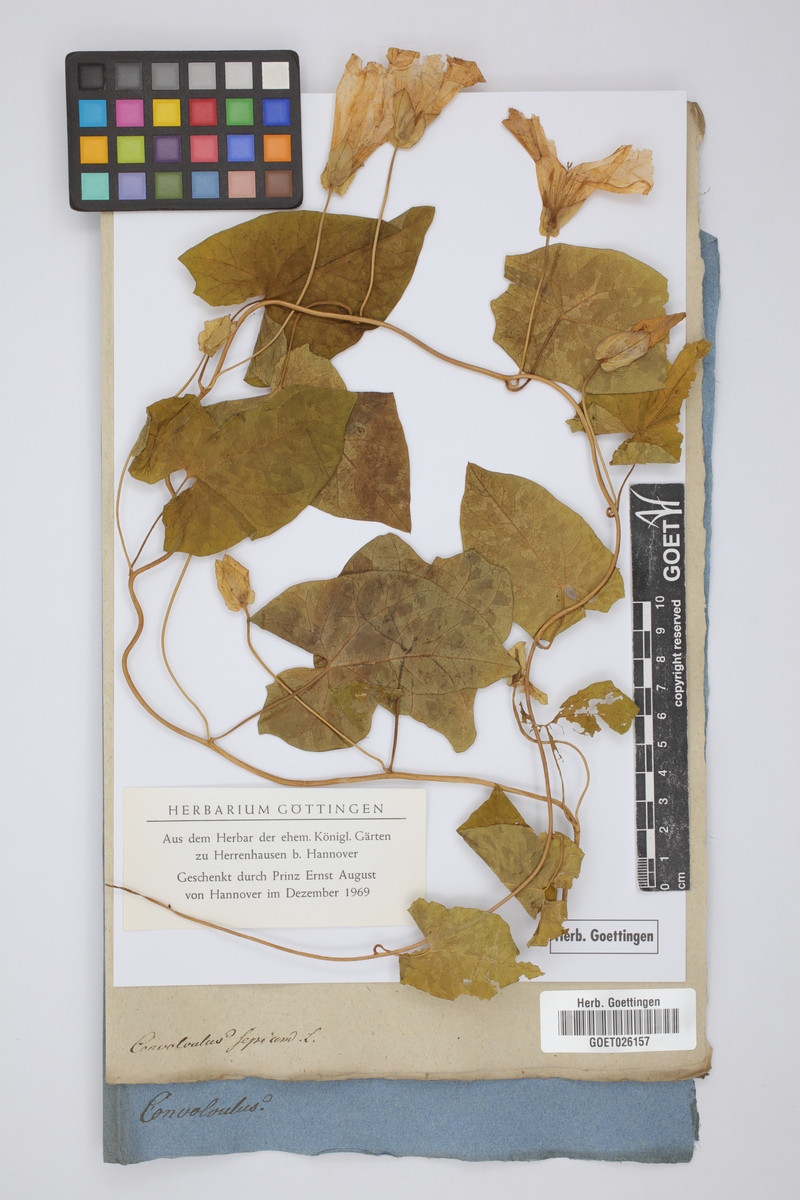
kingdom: Plantae
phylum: Tracheophyta
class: Magnoliopsida
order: Solanales
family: Convolvulaceae
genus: Calystegia
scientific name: Calystegia sepium
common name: Hedge bindweed
